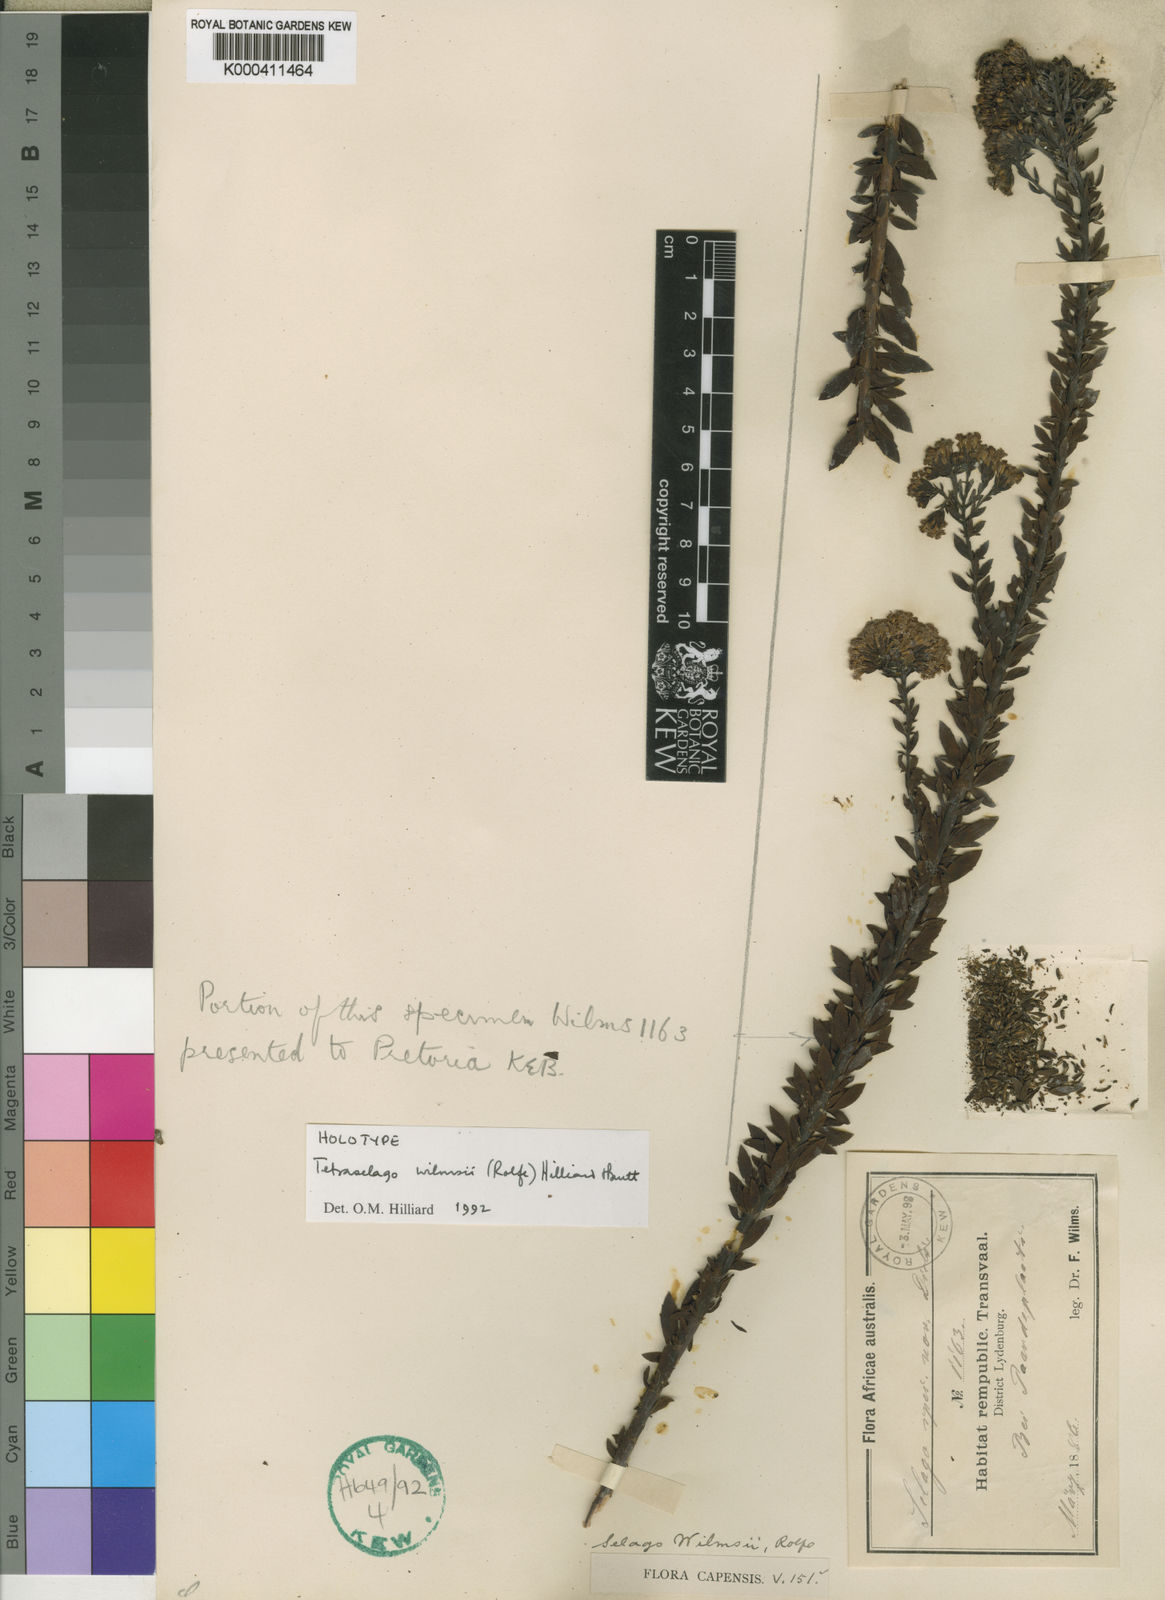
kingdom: Plantae
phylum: Tracheophyta
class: Magnoliopsida
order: Lamiales
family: Scrophulariaceae
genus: Tetraselago
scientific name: Tetraselago wilmsii
